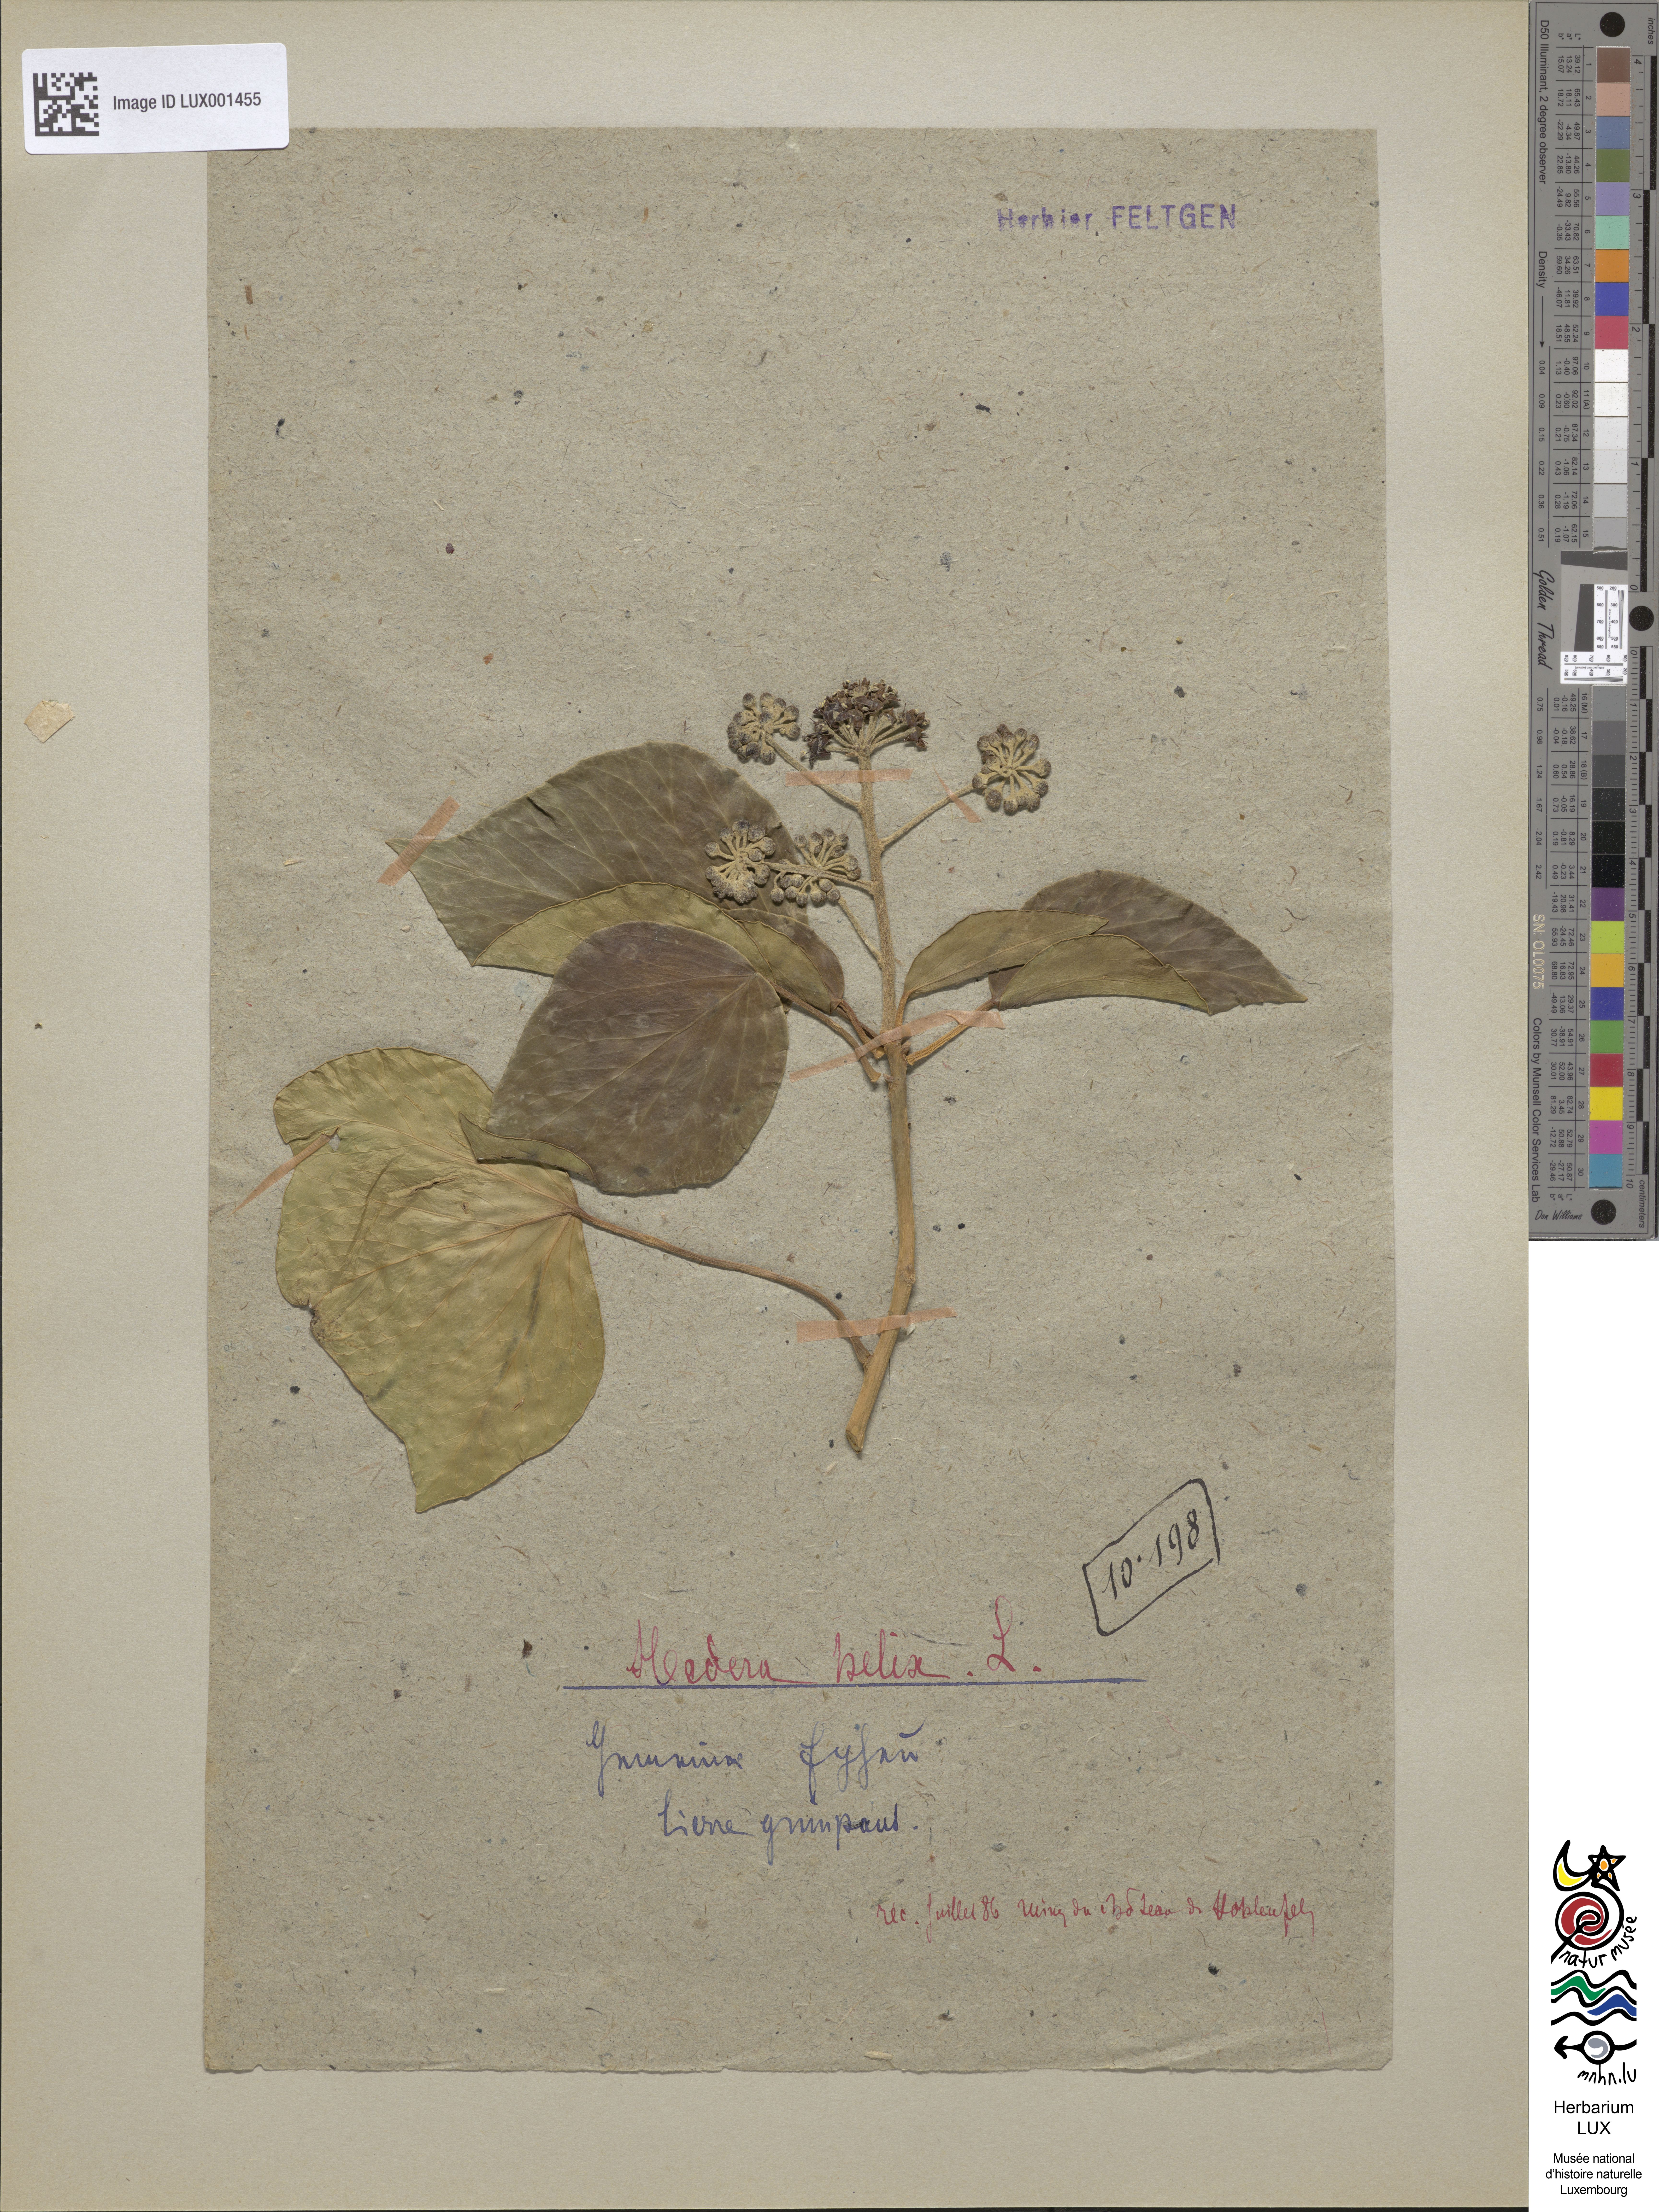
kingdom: Plantae
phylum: Tracheophyta
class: Magnoliopsida
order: Apiales
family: Araliaceae
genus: Hedera
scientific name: Hedera helix
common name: Ivy
